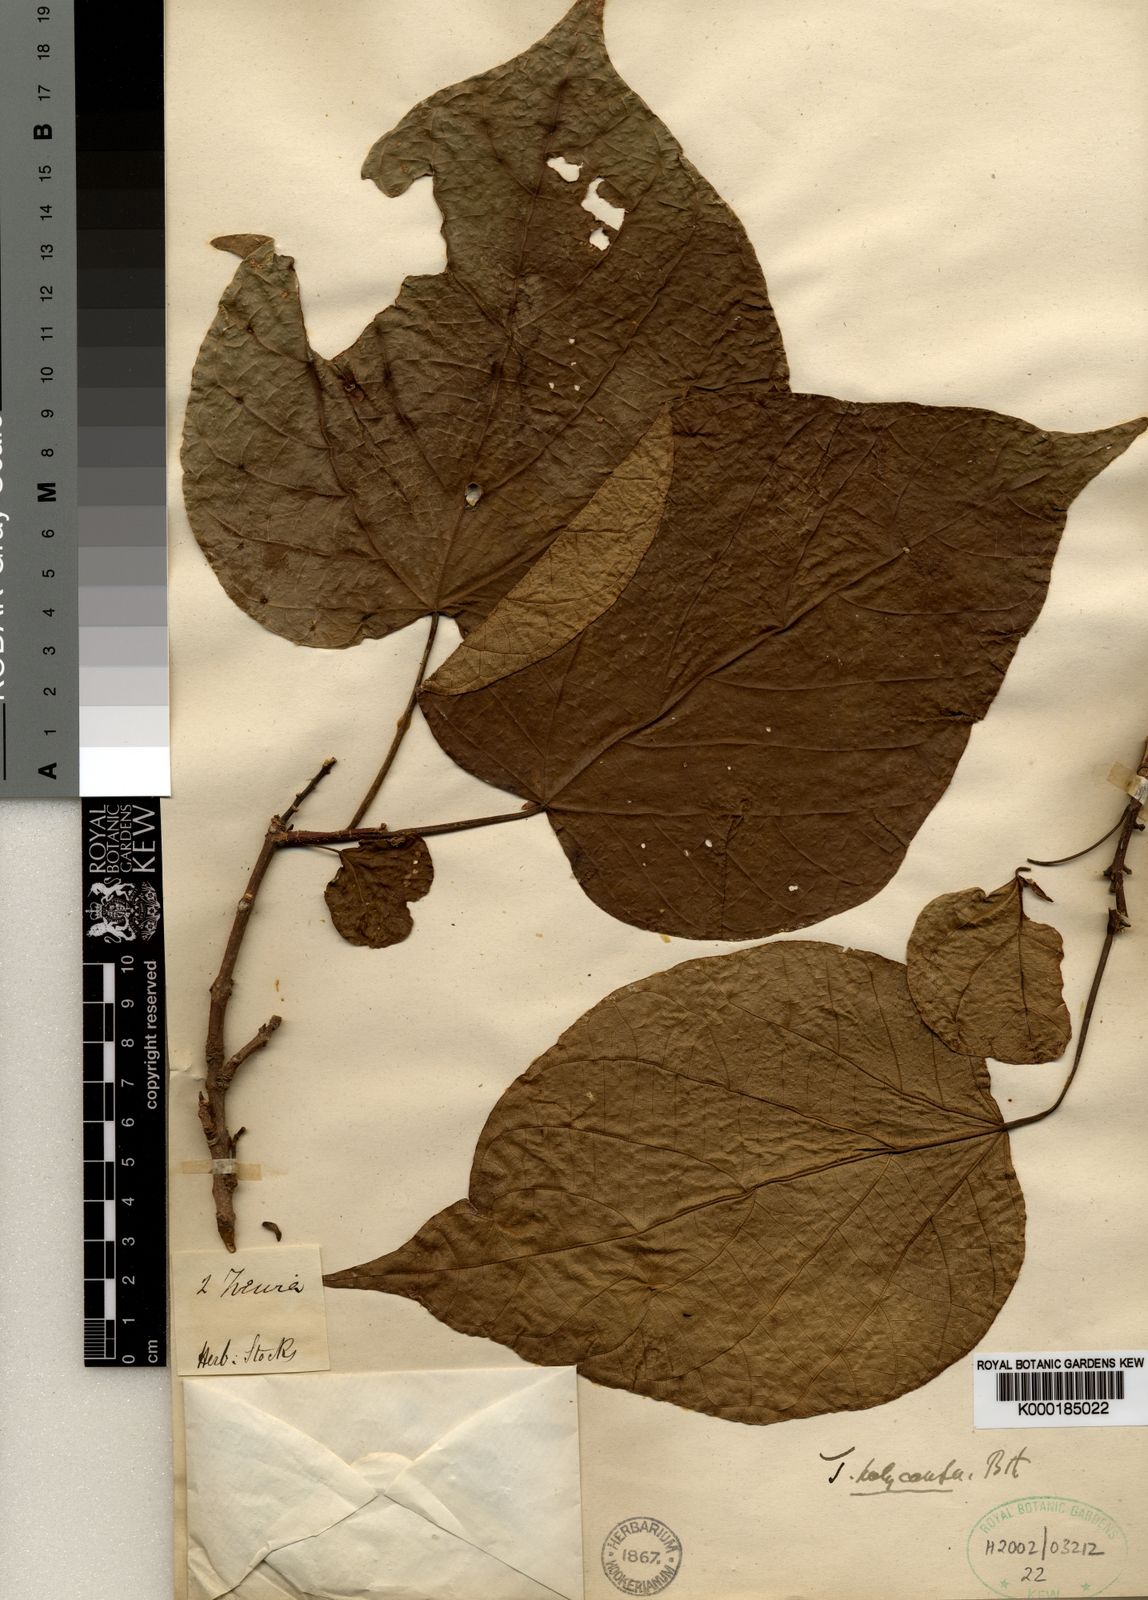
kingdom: Plantae
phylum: Tracheophyta
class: Magnoliopsida
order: Malpighiales
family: Euphorbiaceae
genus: Mallotus
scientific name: Mallotus polycarpus
